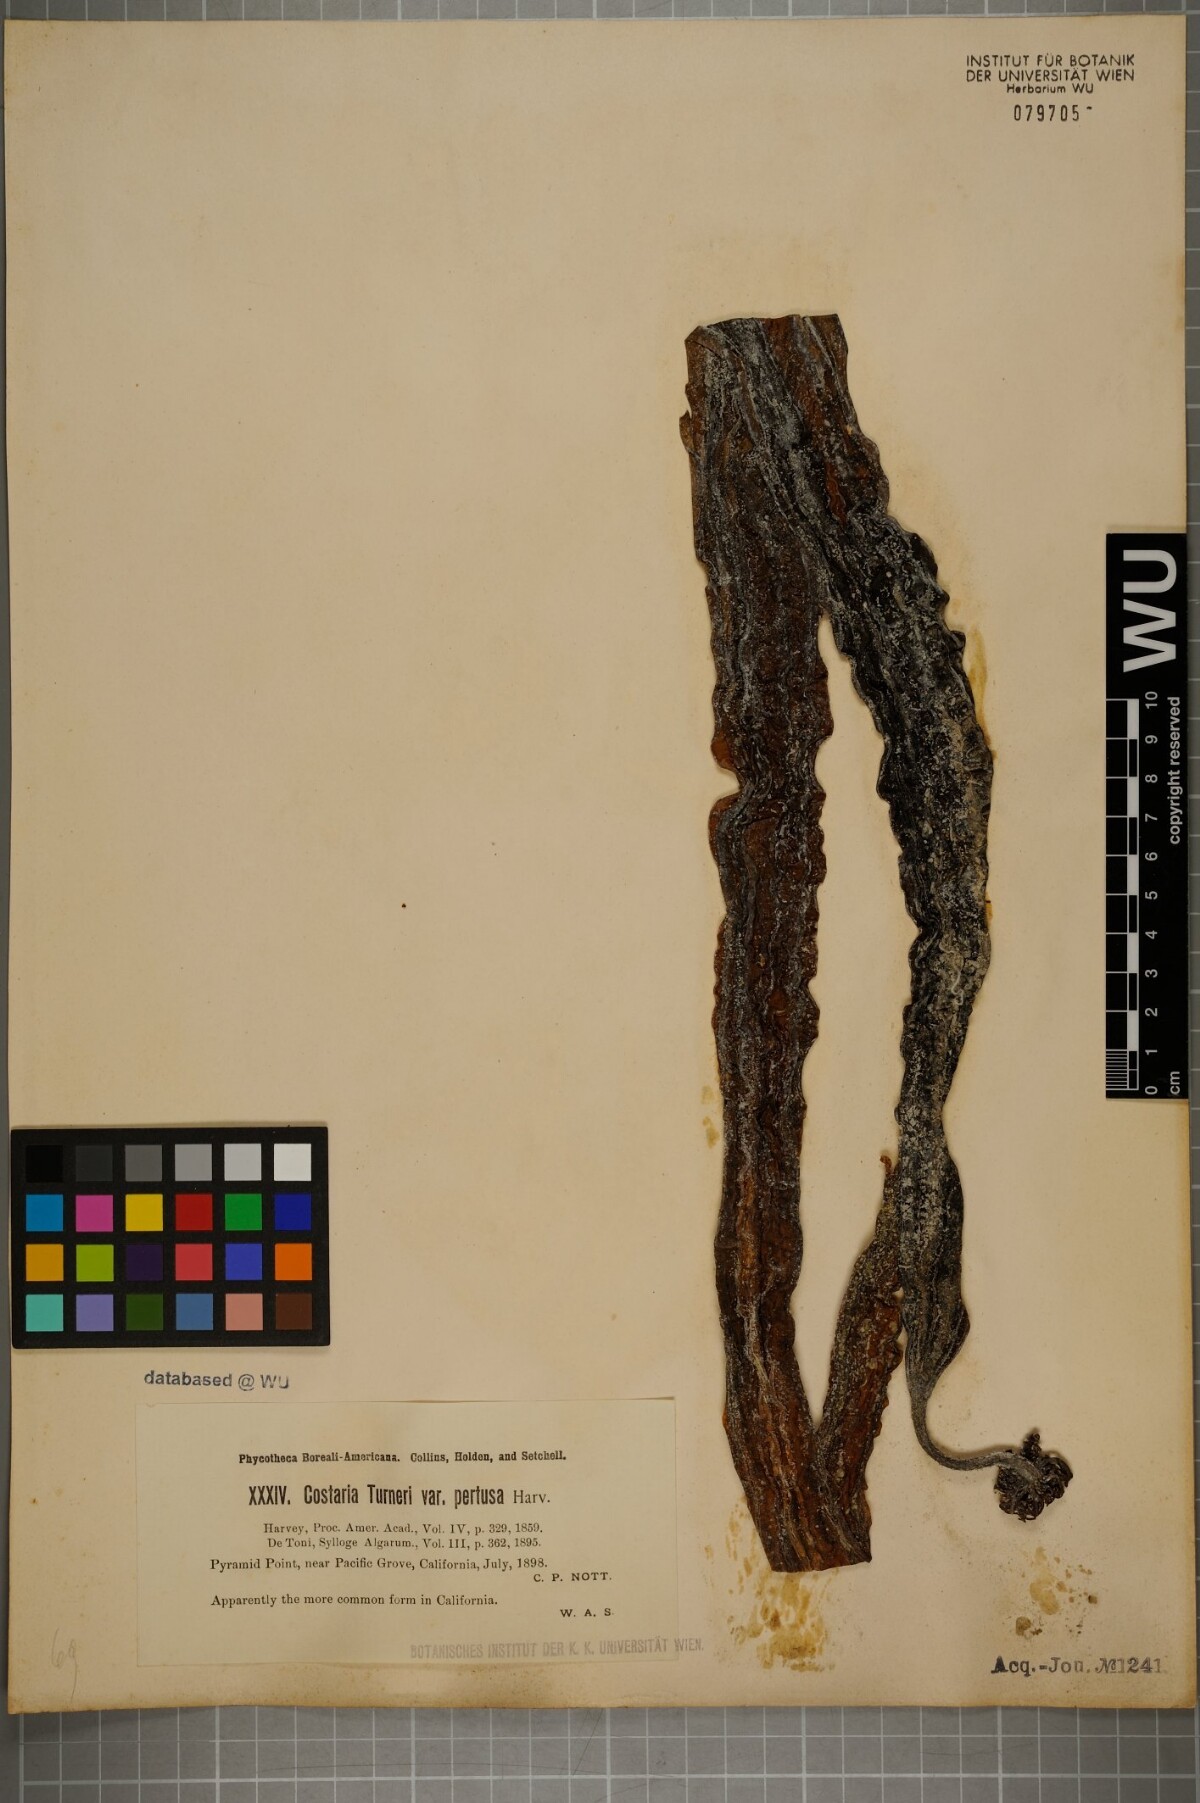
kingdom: Chromista
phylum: Ochrophyta
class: Phaeophyceae
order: Laminariales
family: Costariaceae
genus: Costaria
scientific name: Costaria turneri
